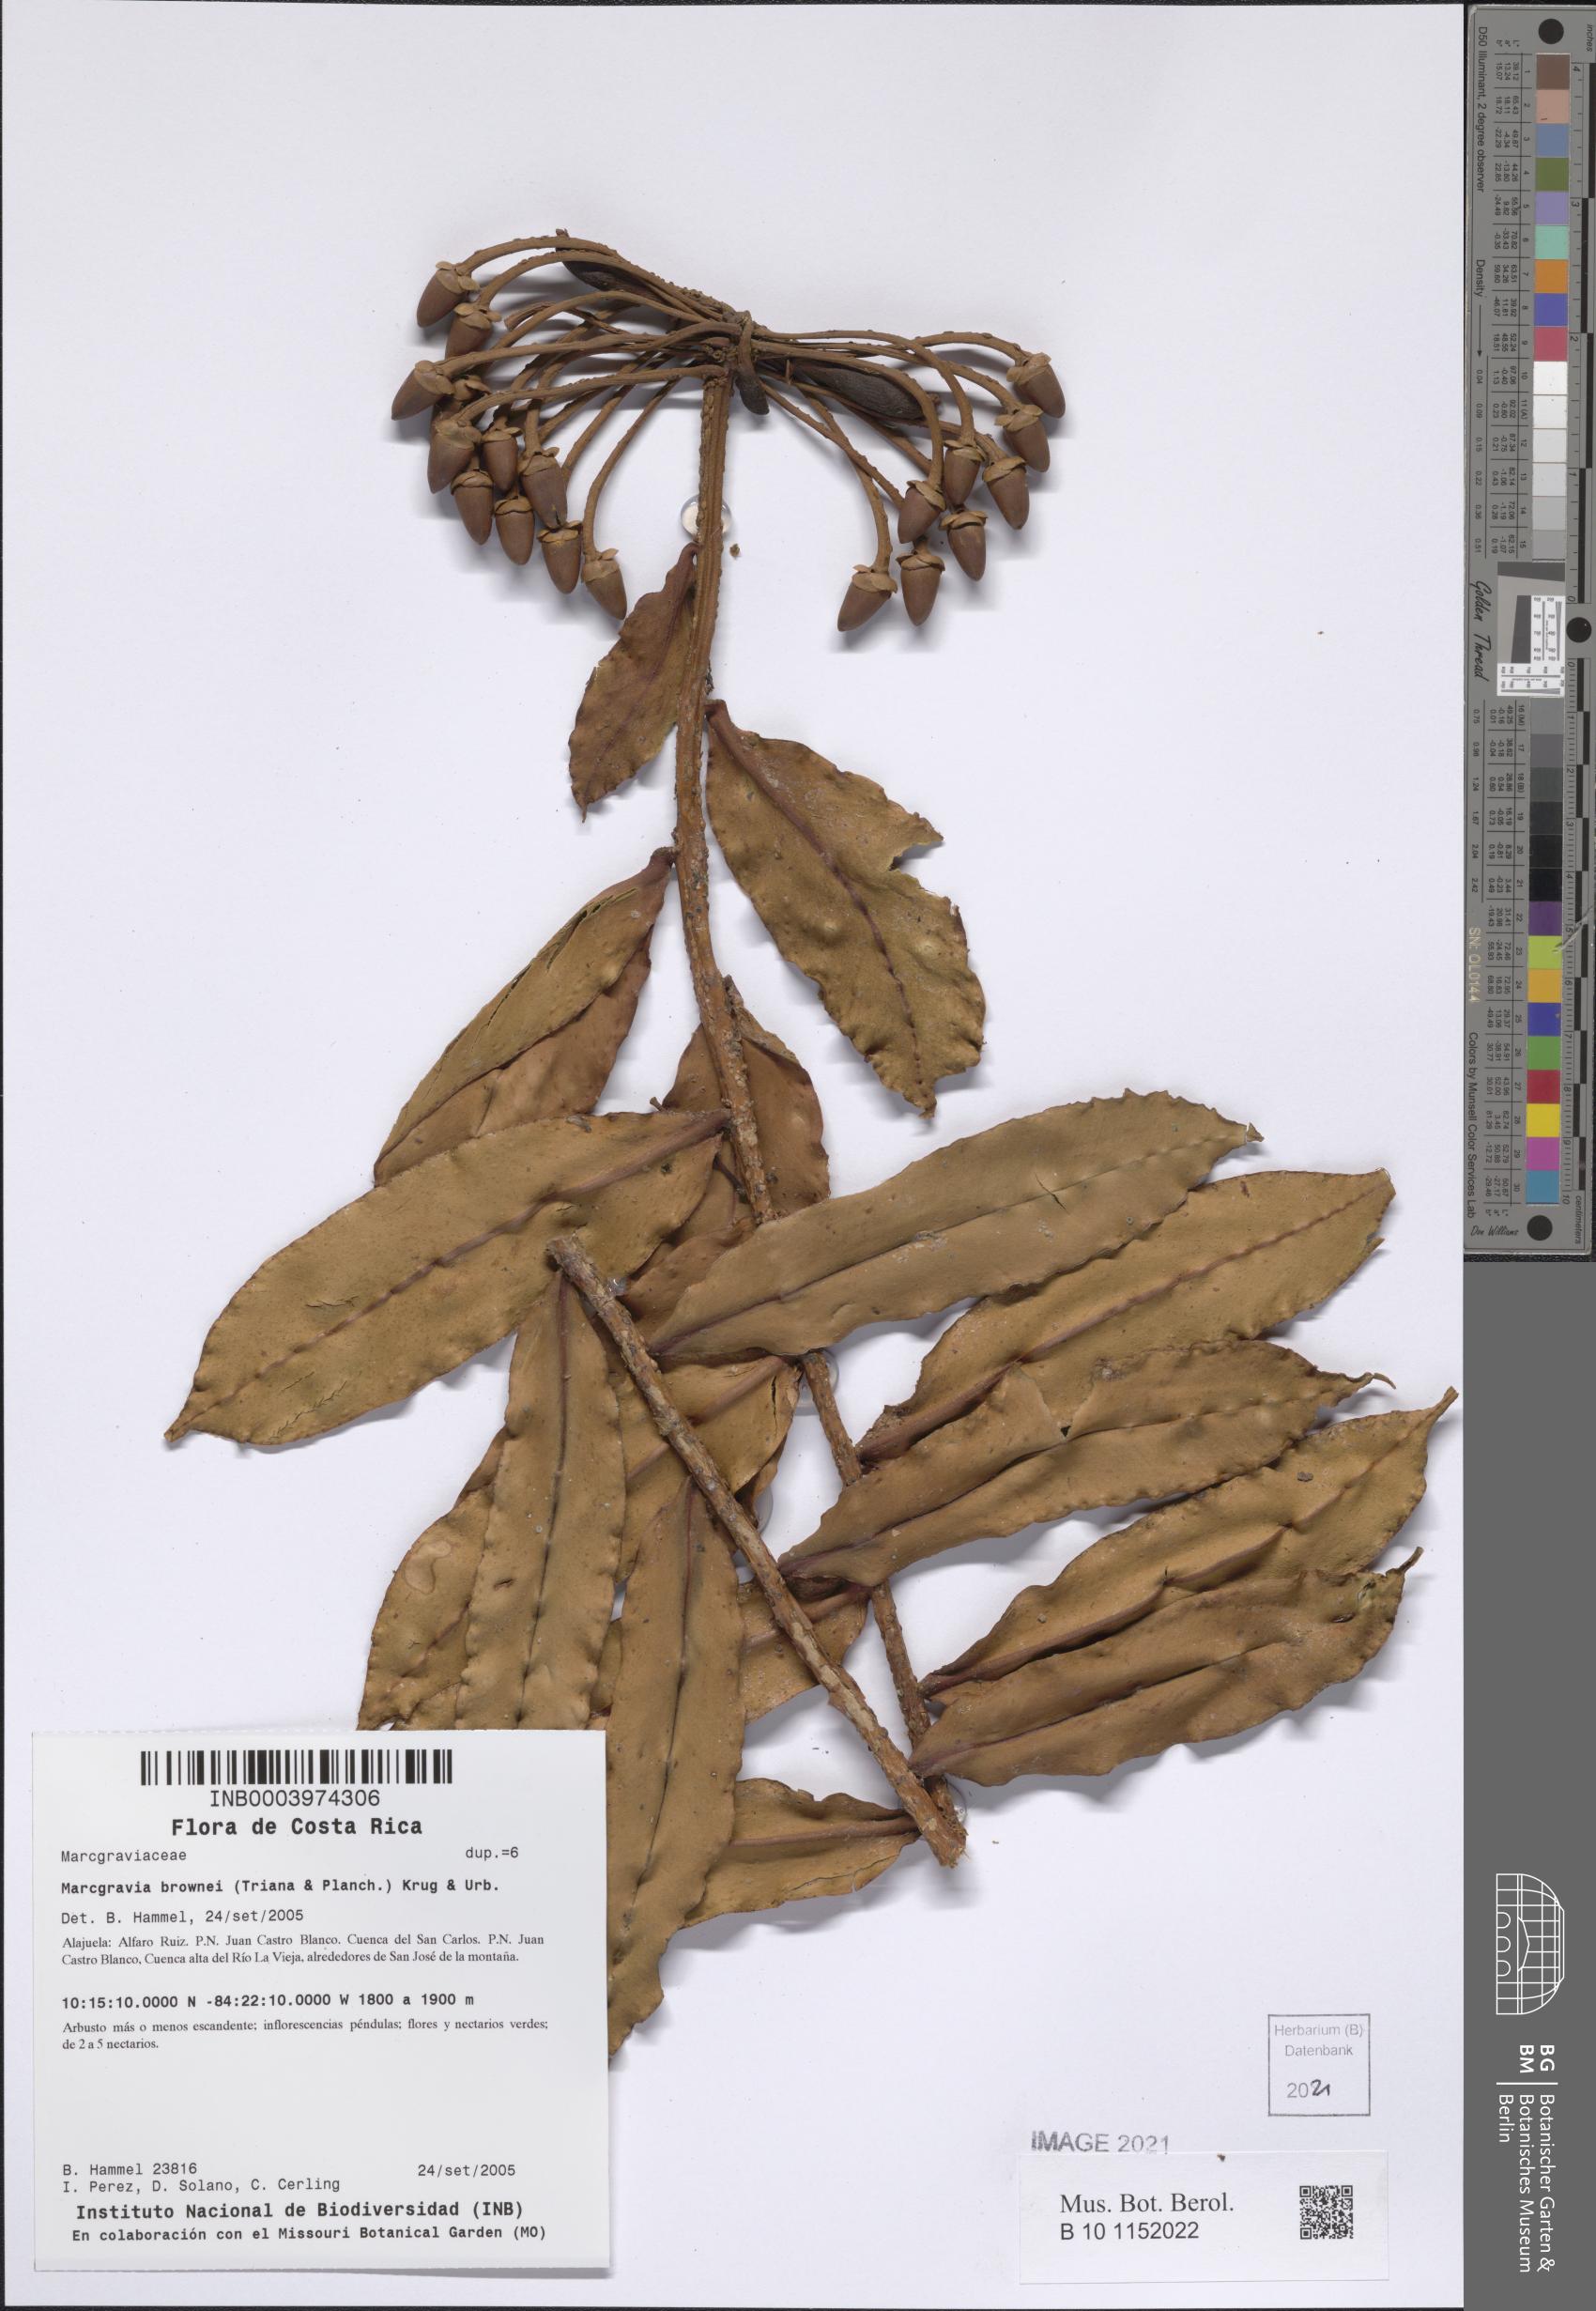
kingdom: Plantae
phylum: Tracheophyta
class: Magnoliopsida
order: Ericales
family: Marcgraviaceae
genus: Marcgravia
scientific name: Marcgravia brownei
